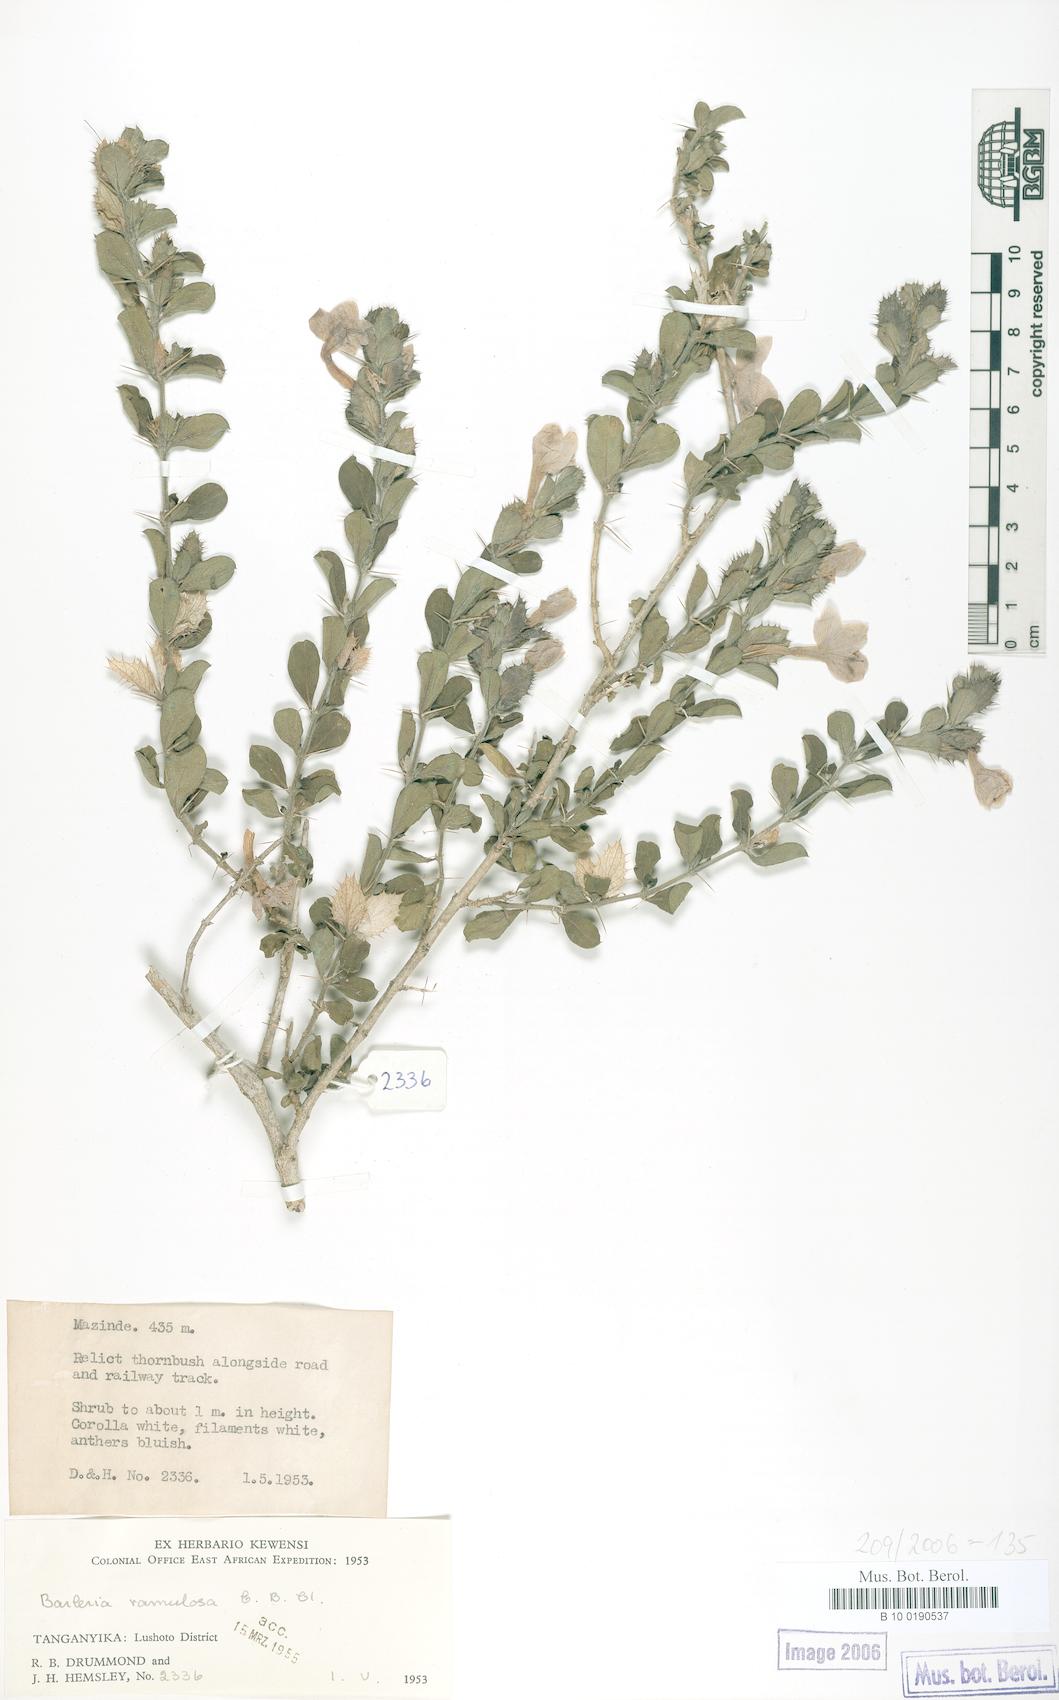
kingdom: Plantae
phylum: Tracheophyta
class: Magnoliopsida
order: Lamiales
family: Acanthaceae
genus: Barleria
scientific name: Barleria ramulosa
